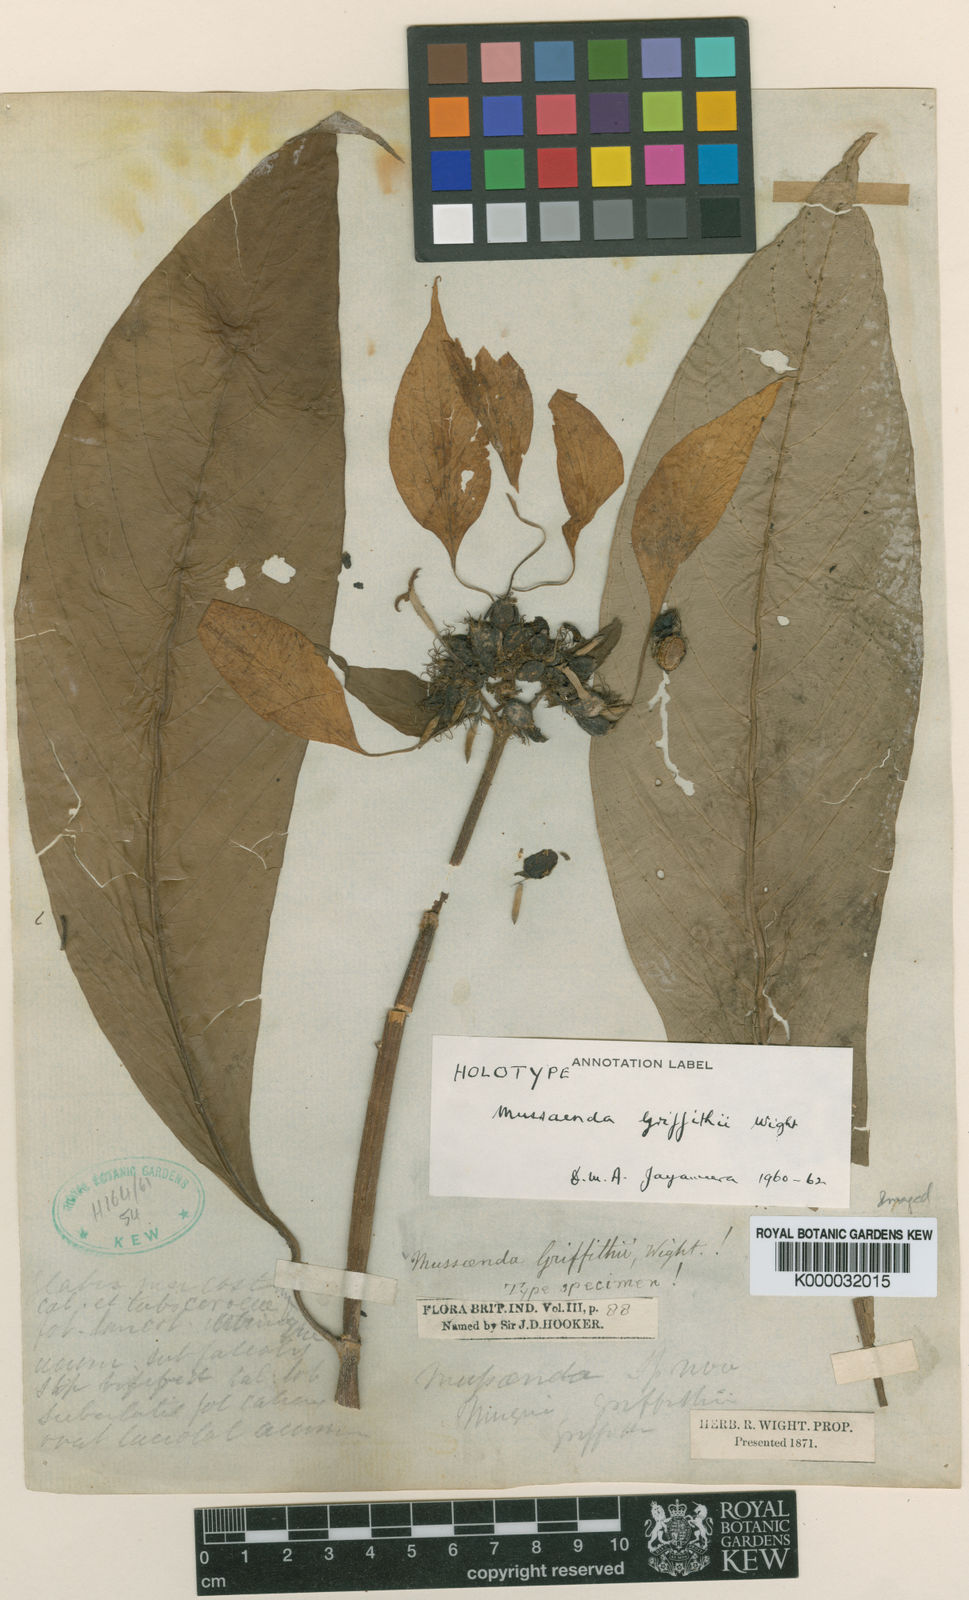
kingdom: Plantae
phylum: Tracheophyta
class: Magnoliopsida
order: Gentianales
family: Rubiaceae
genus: Mussaenda
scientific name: Mussaenda
